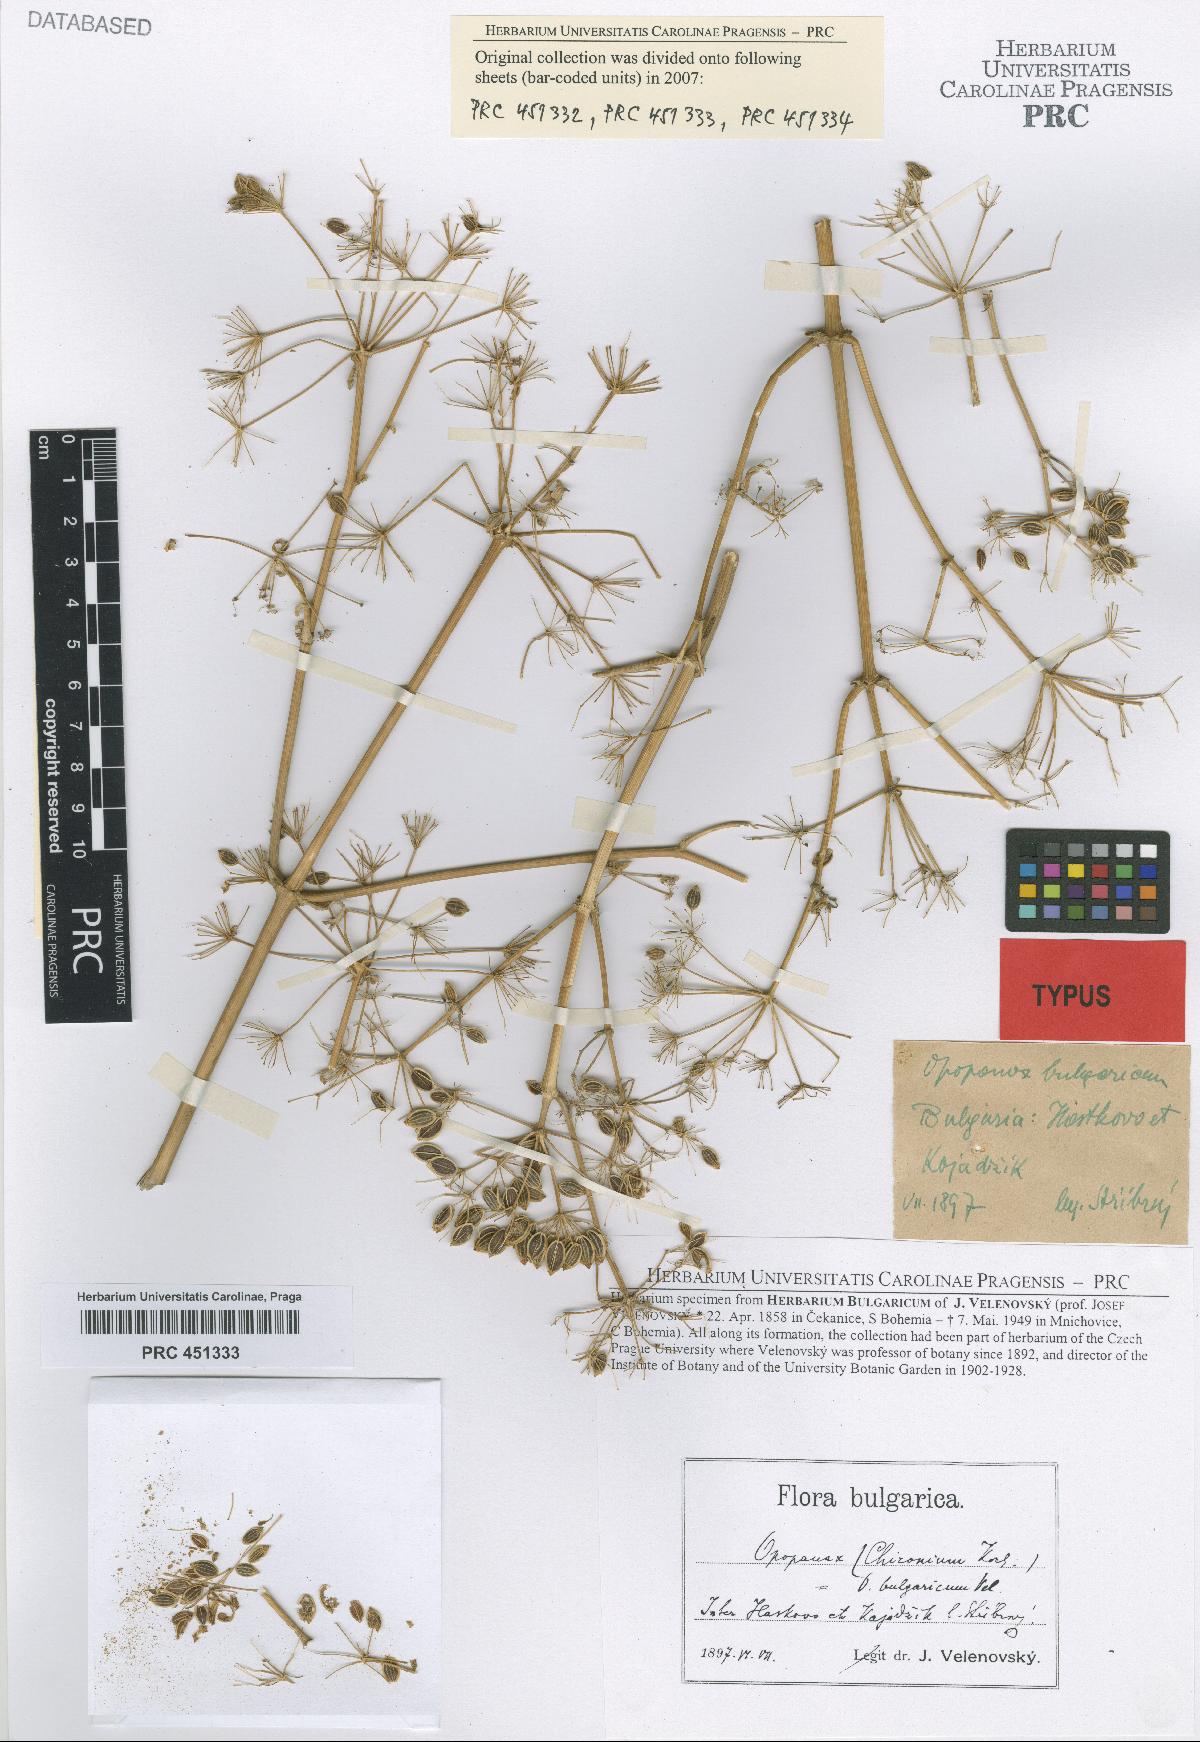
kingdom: Plantae
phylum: Tracheophyta
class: Magnoliopsida
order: Apiales
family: Apiaceae
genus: Opopanax
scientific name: Opopanax chironium
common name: Hercules-all-heal
